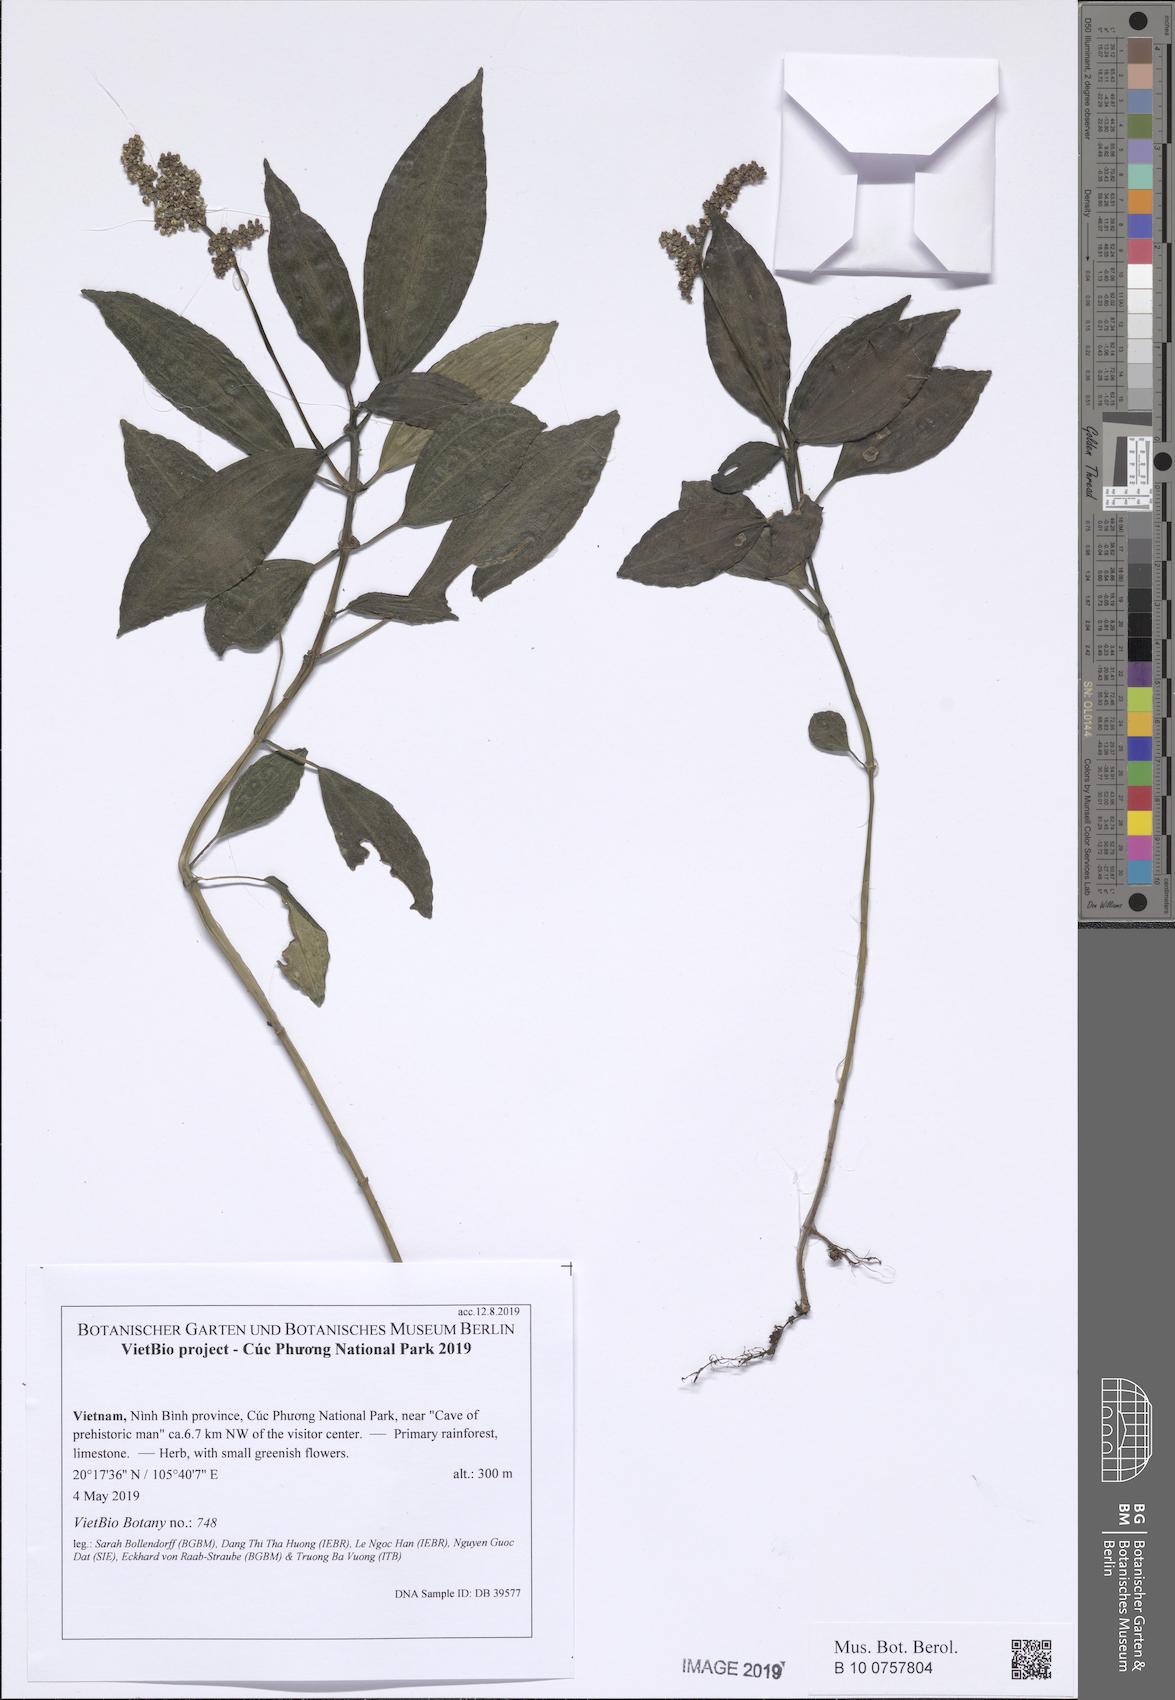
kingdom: Plantae
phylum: Tracheophyta
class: Magnoliopsida
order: Rosales
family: Urticaceae
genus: Pilea
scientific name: Pilea cadierei
